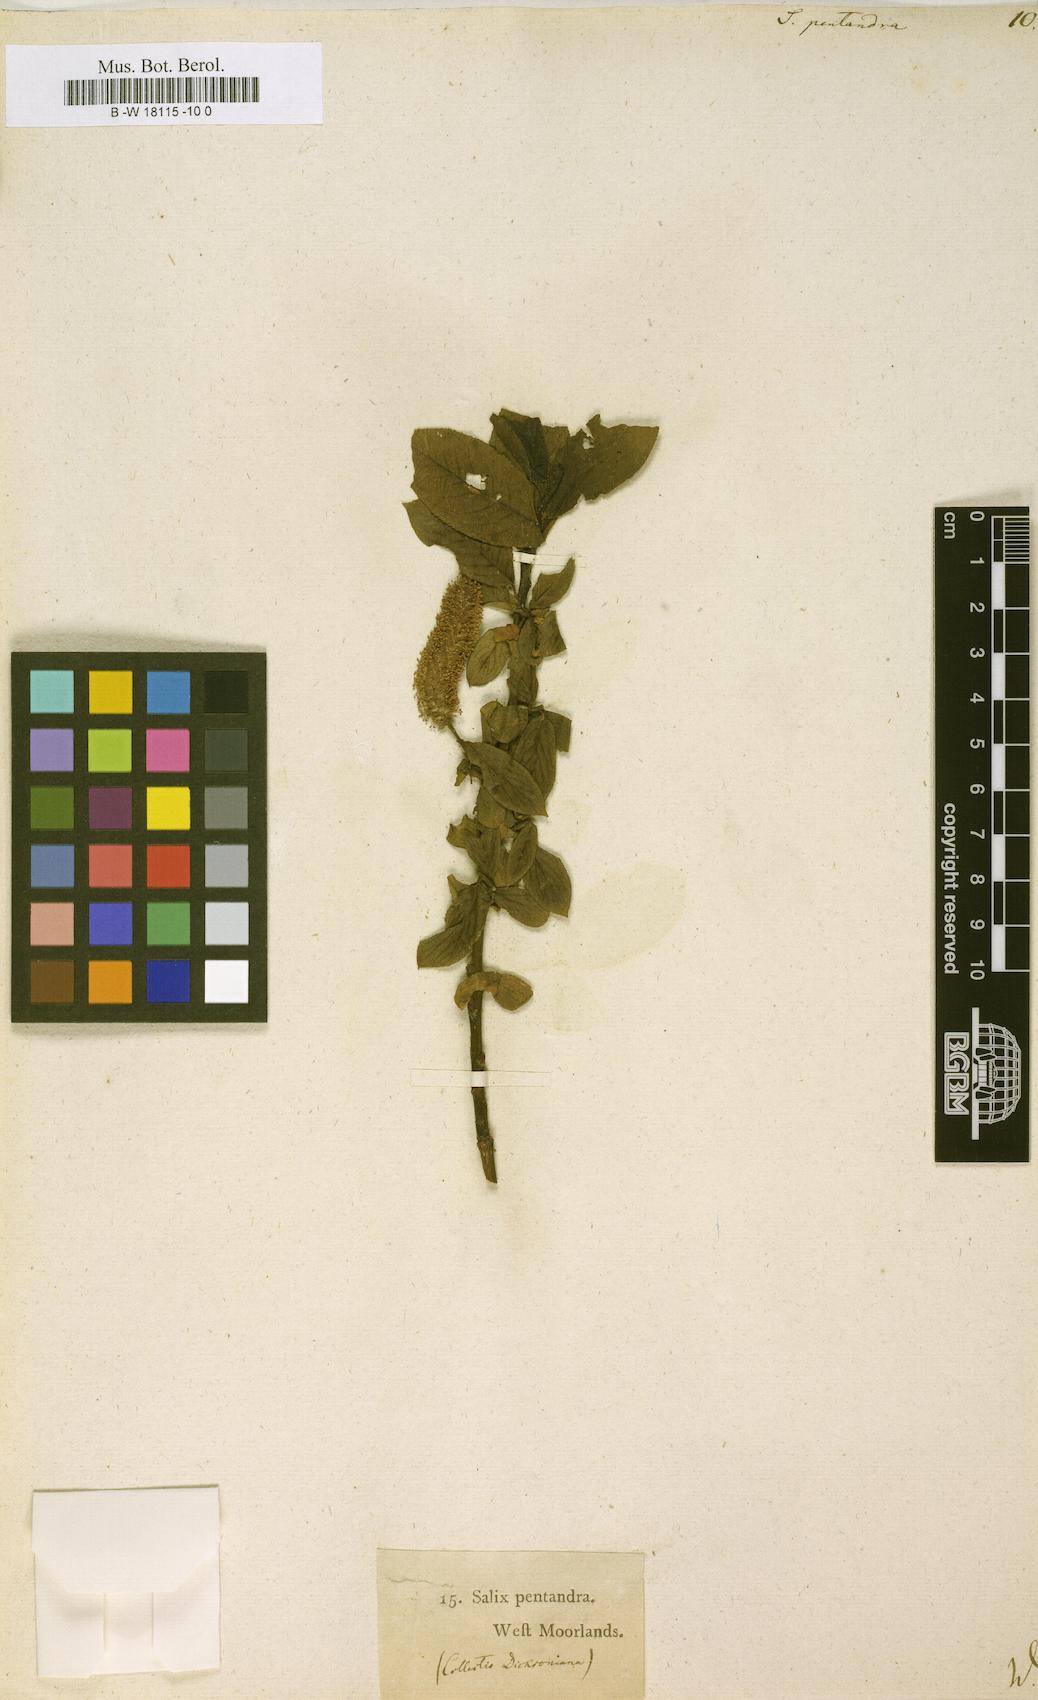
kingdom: Plantae
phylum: Tracheophyta
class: Magnoliopsida
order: Malpighiales
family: Salicaceae
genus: Salix
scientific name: Salix pentandra
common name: Bay willow
